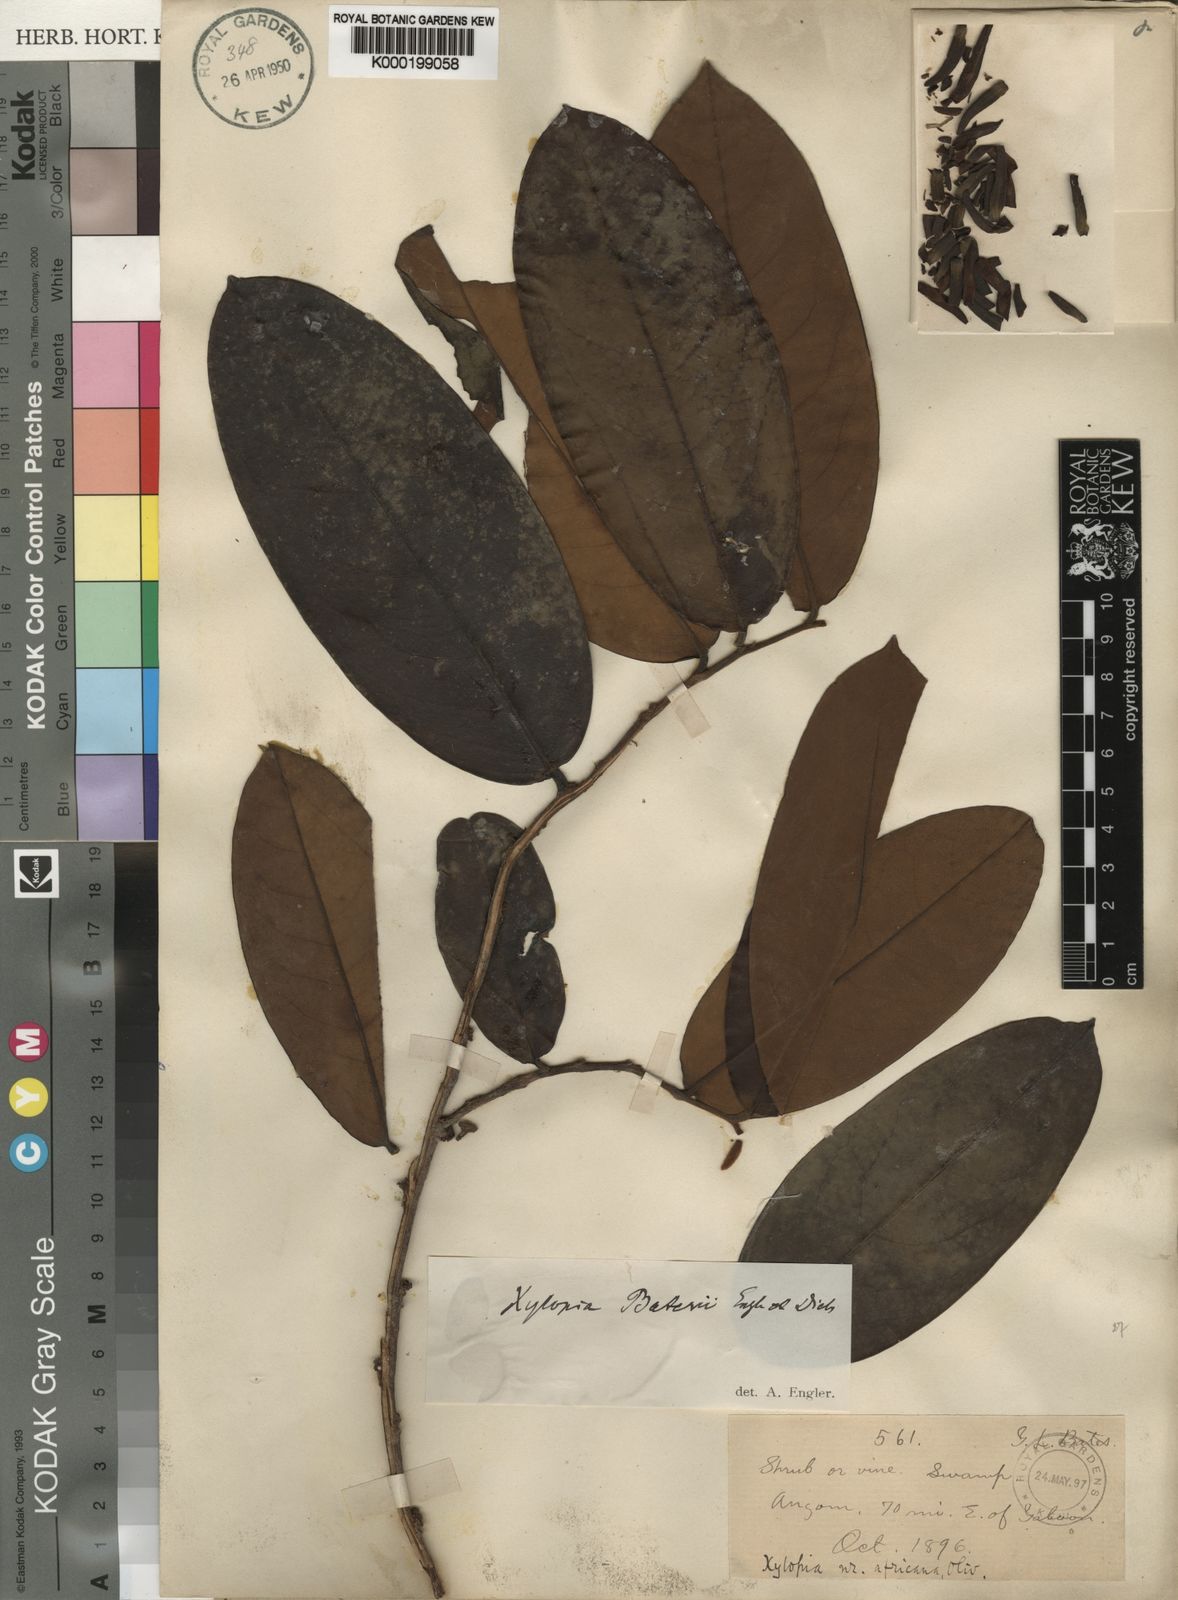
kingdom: Plantae
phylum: Tracheophyta
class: Magnoliopsida
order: Magnoliales
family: Annonaceae
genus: Xylopia
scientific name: Xylopia rubescens
